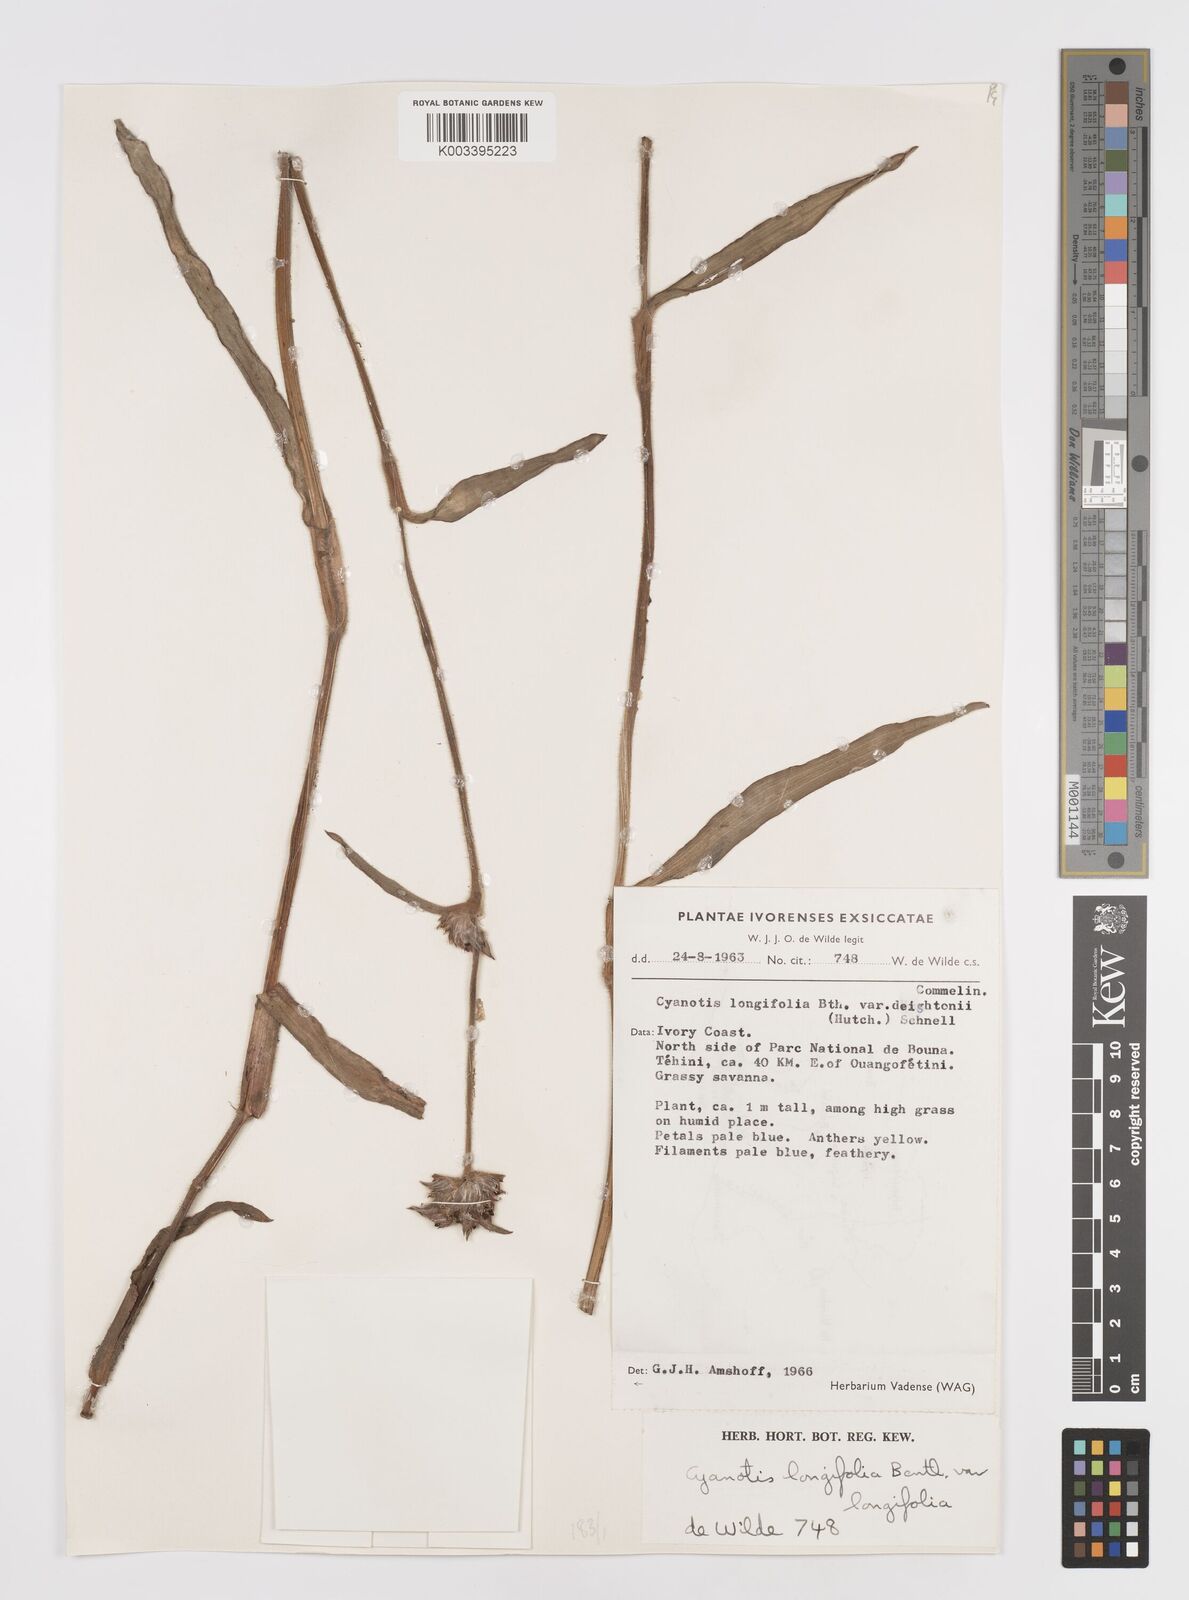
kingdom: Plantae
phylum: Tracheophyta
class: Liliopsida
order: Commelinales
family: Commelinaceae
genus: Cyanotis
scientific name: Cyanotis longifolia
